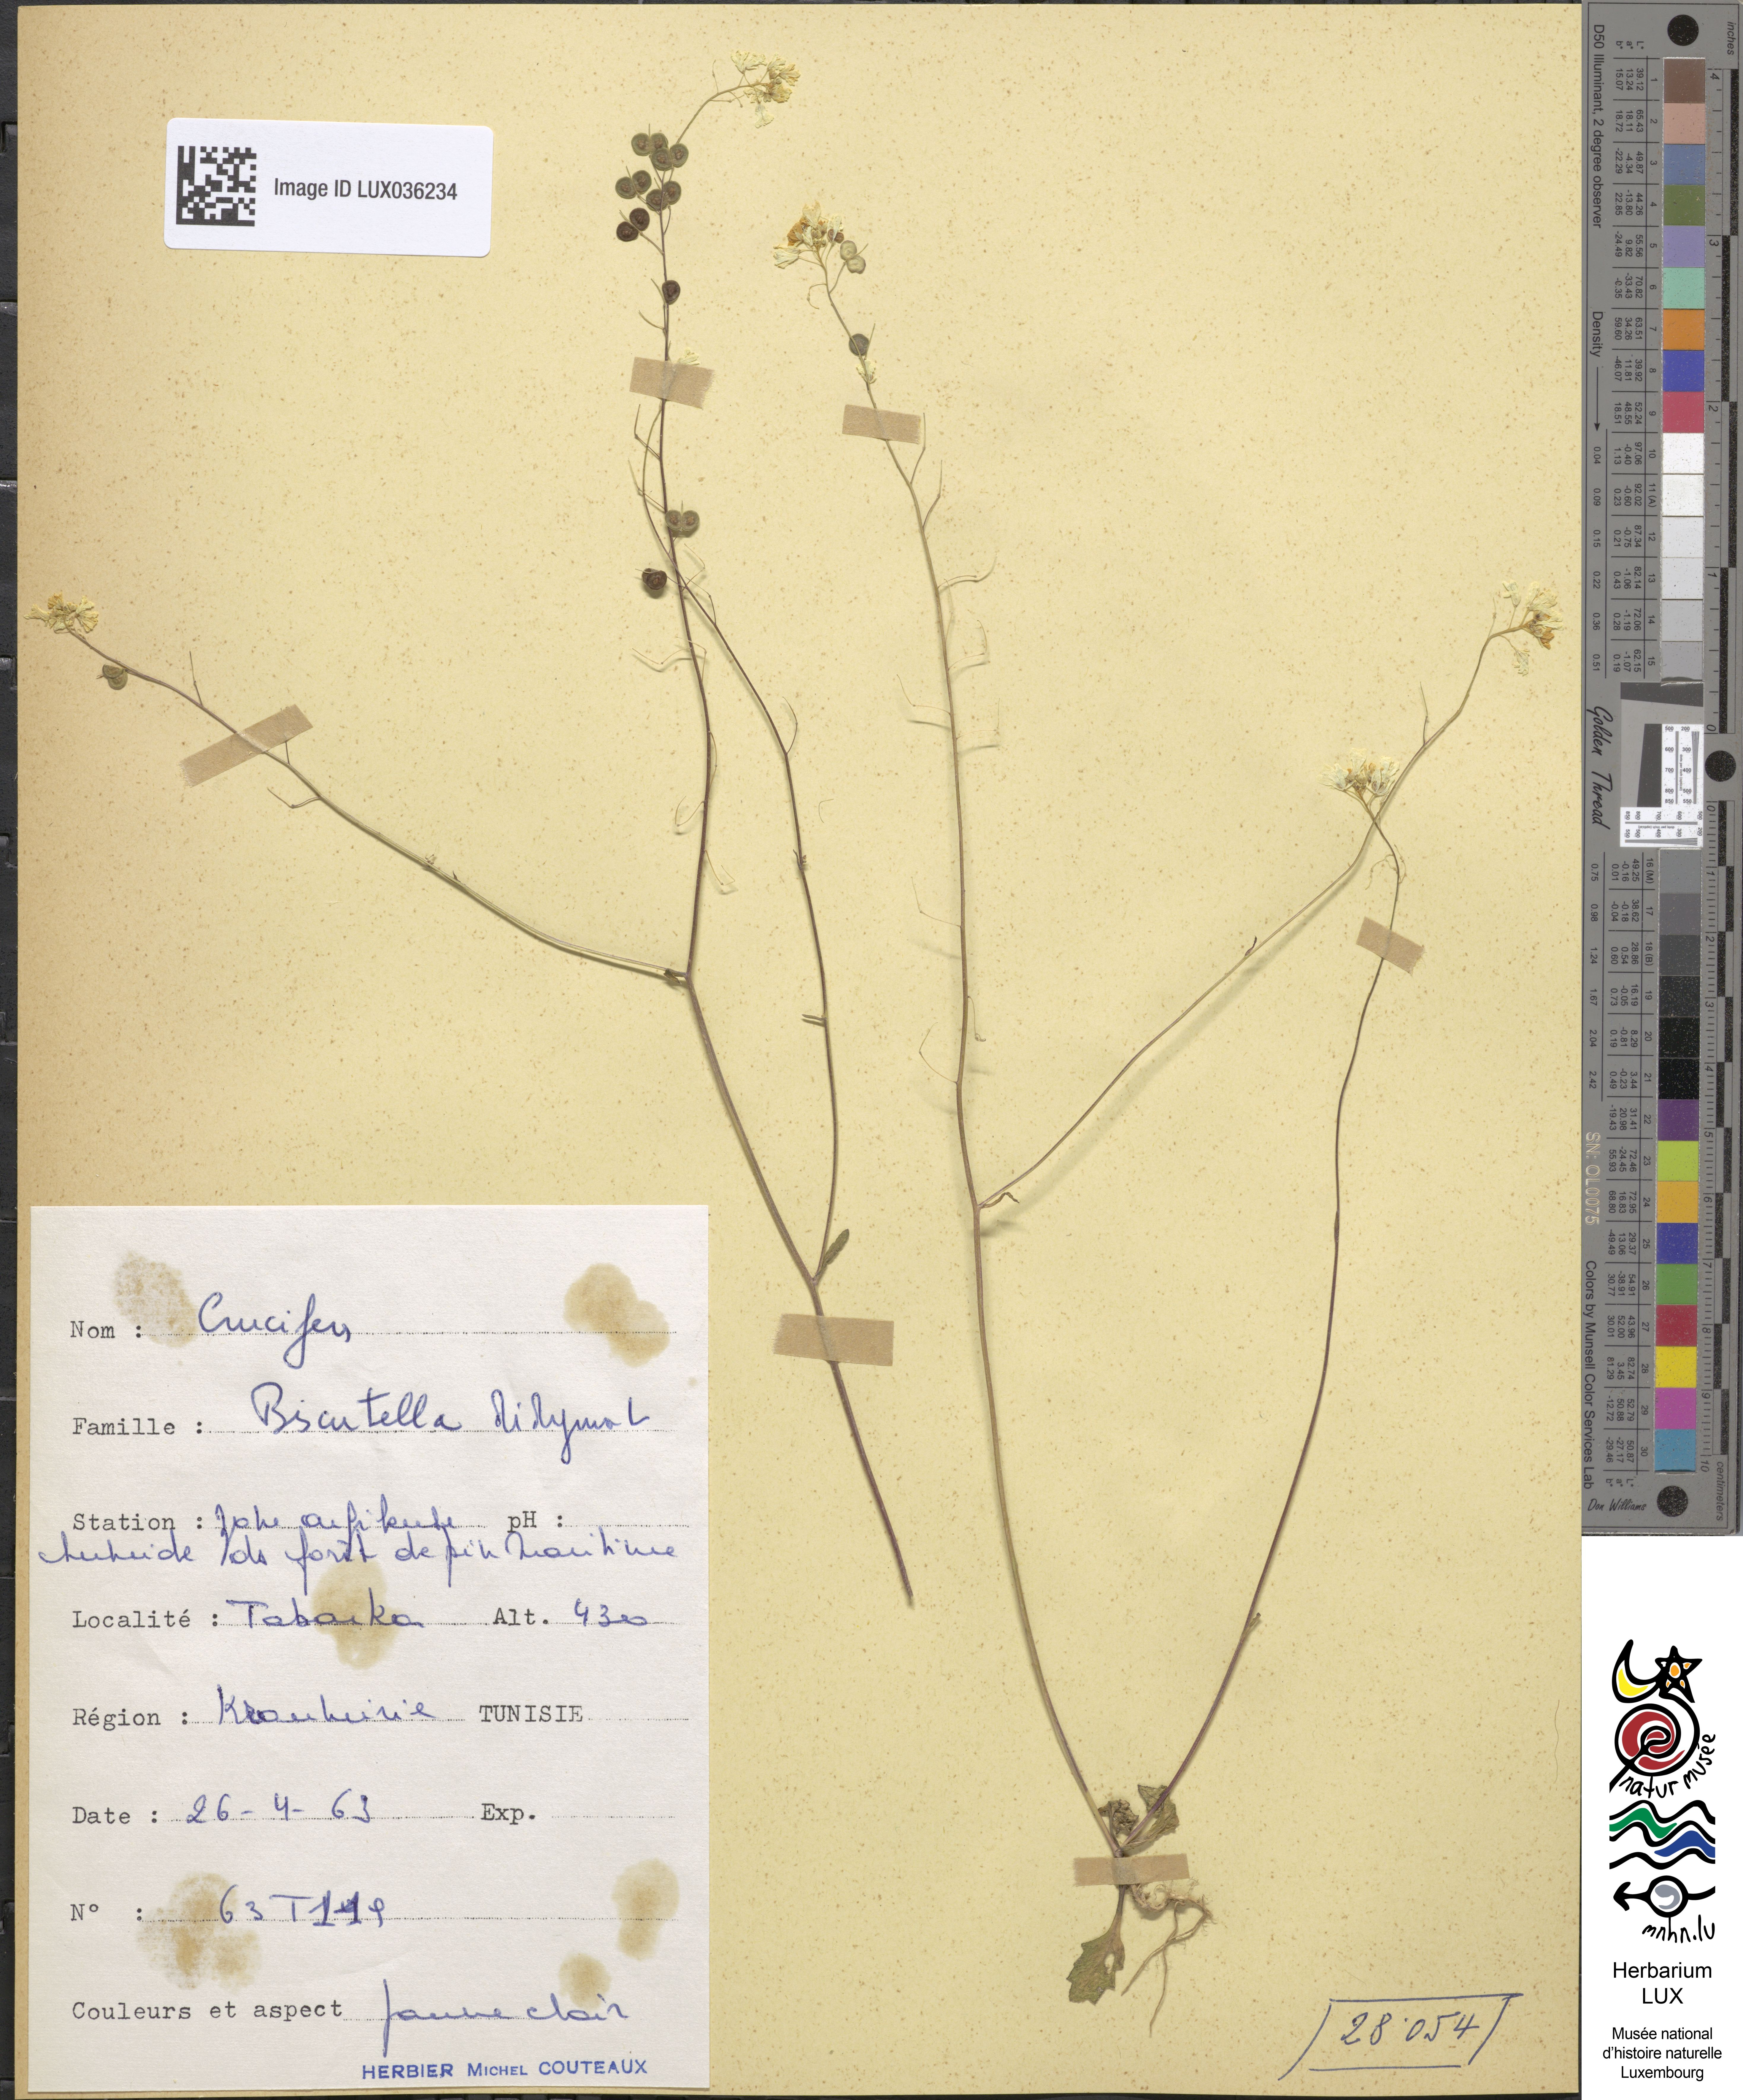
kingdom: Plantae
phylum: Tracheophyta
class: Magnoliopsida
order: Brassicales
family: Brassicaceae
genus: Biscutella
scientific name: Biscutella didyma
